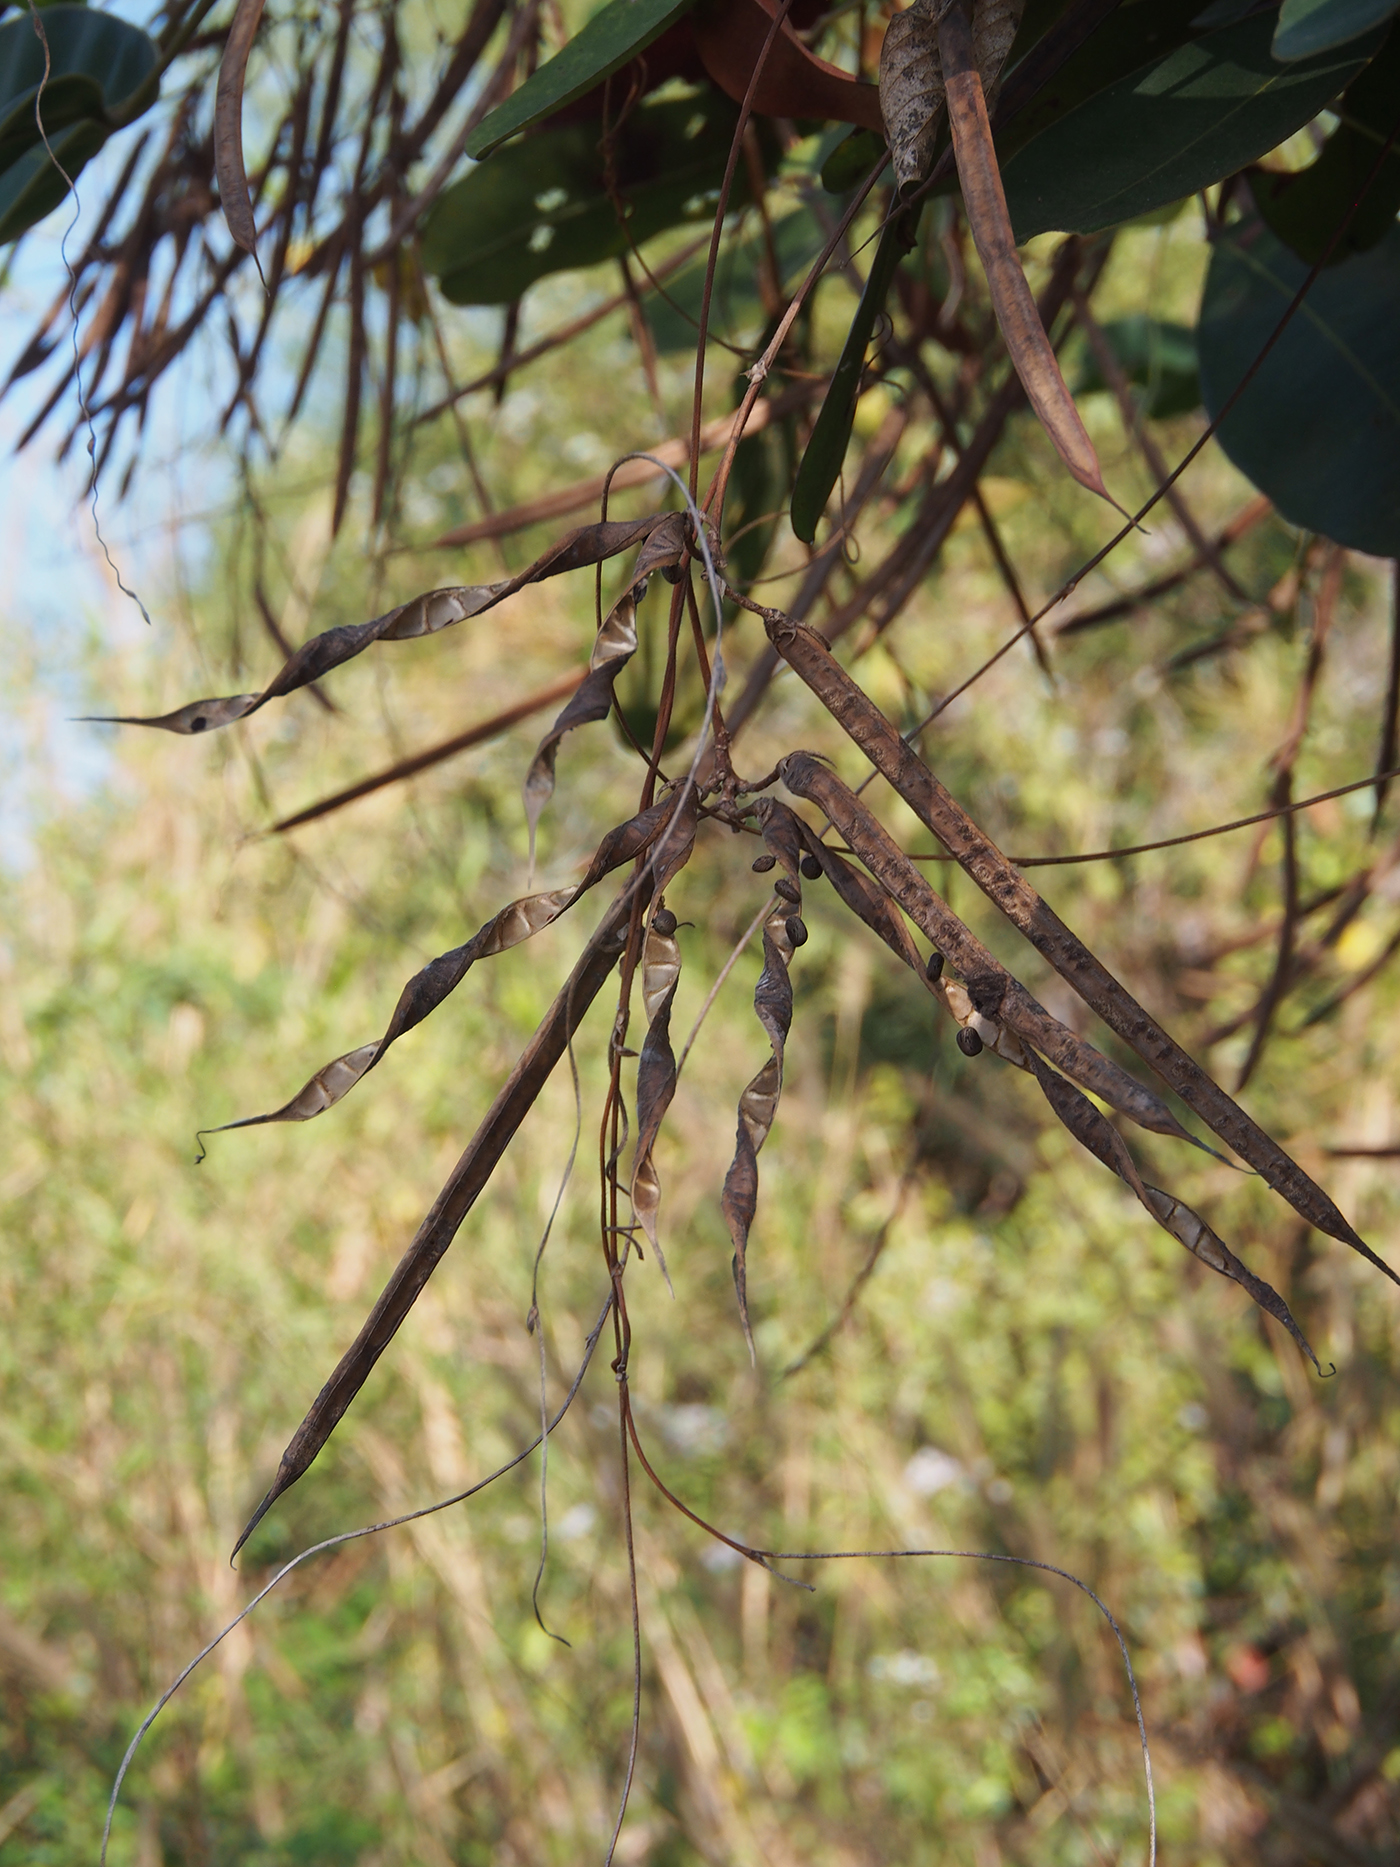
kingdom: Plantae
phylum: Tracheophyta
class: Magnoliopsida
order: Fabales
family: Fabaceae
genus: Centrosema
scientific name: Centrosema pubescens
